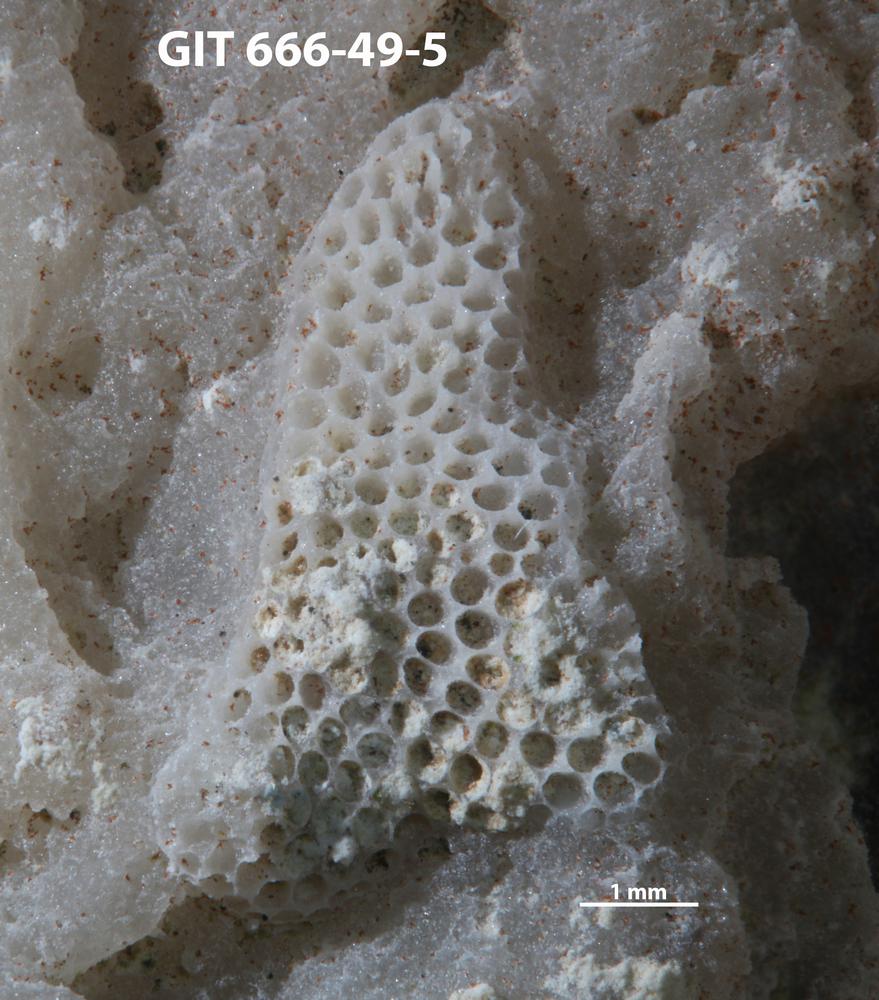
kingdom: Animalia
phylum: Bryozoa
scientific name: Bryozoa
